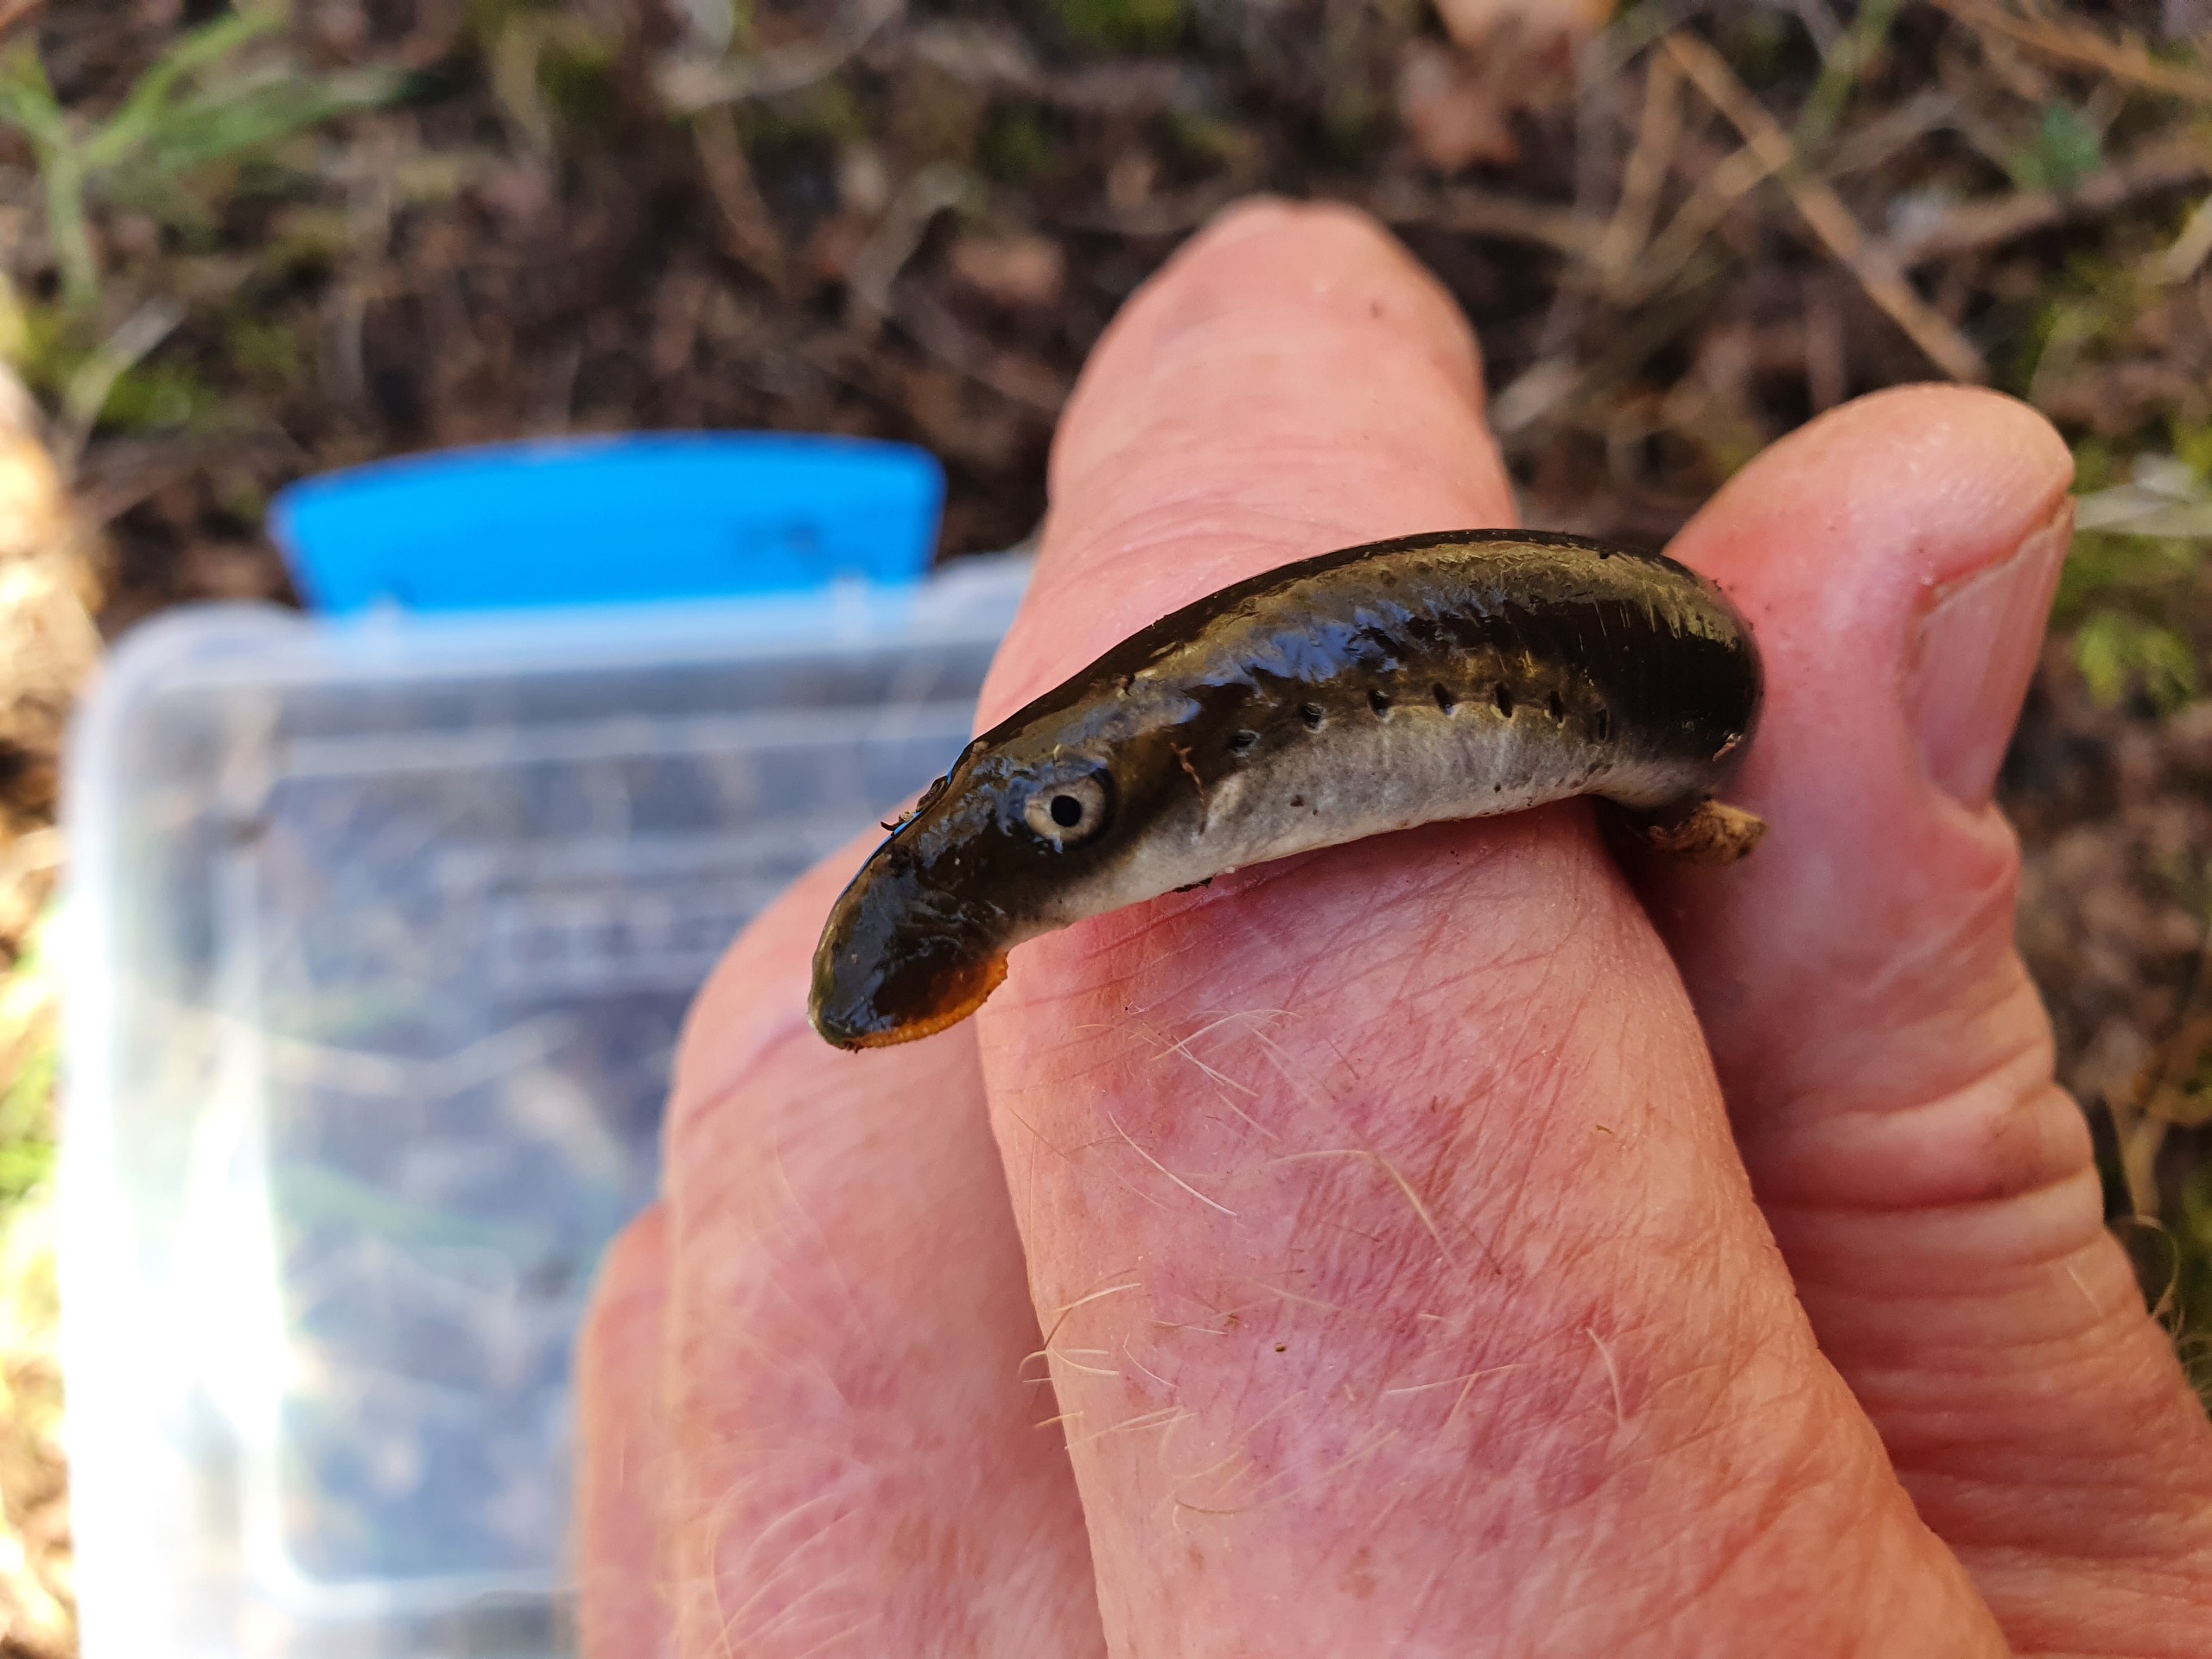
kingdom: Animalia
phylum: Chordata
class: Petromyzonti
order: Petromyzontiformes
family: Petromyzontidae
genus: Lampetra
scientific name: Lampetra planeri
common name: Bæklampret
